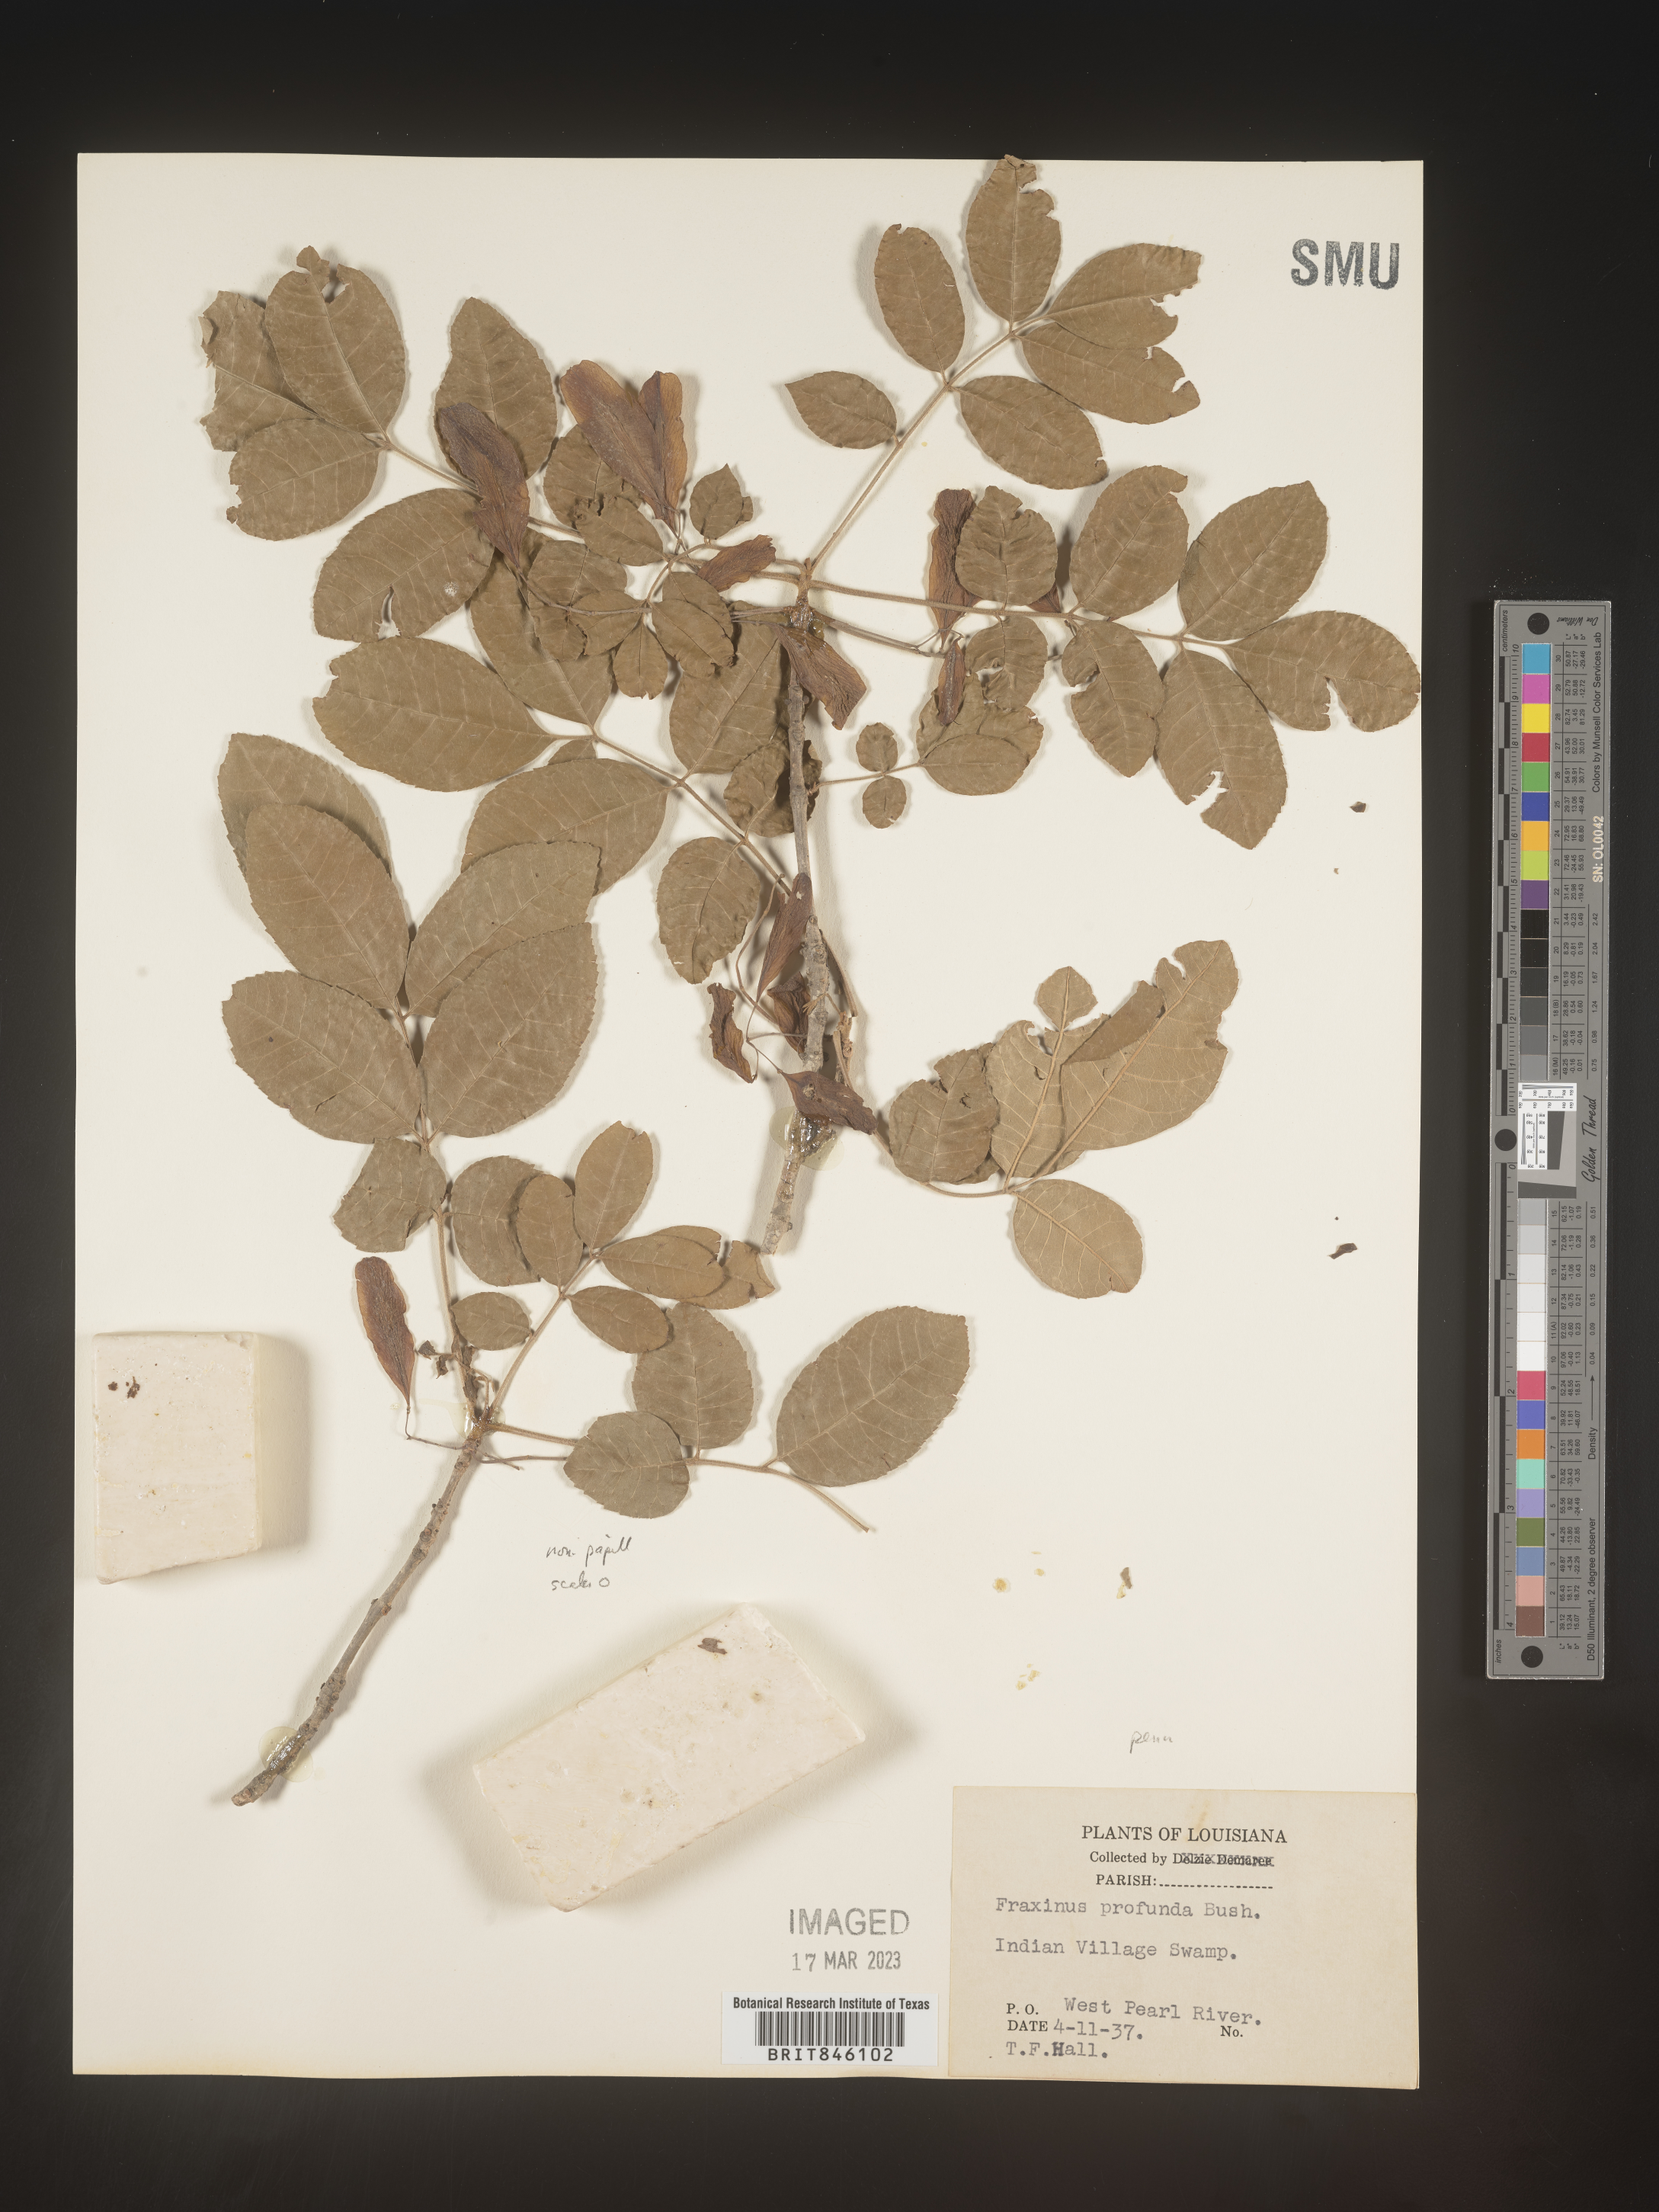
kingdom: Plantae
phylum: Tracheophyta
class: Magnoliopsida
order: Lamiales
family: Oleaceae
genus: Fraxinus
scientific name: Fraxinus pennsylvanica
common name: Green ash
